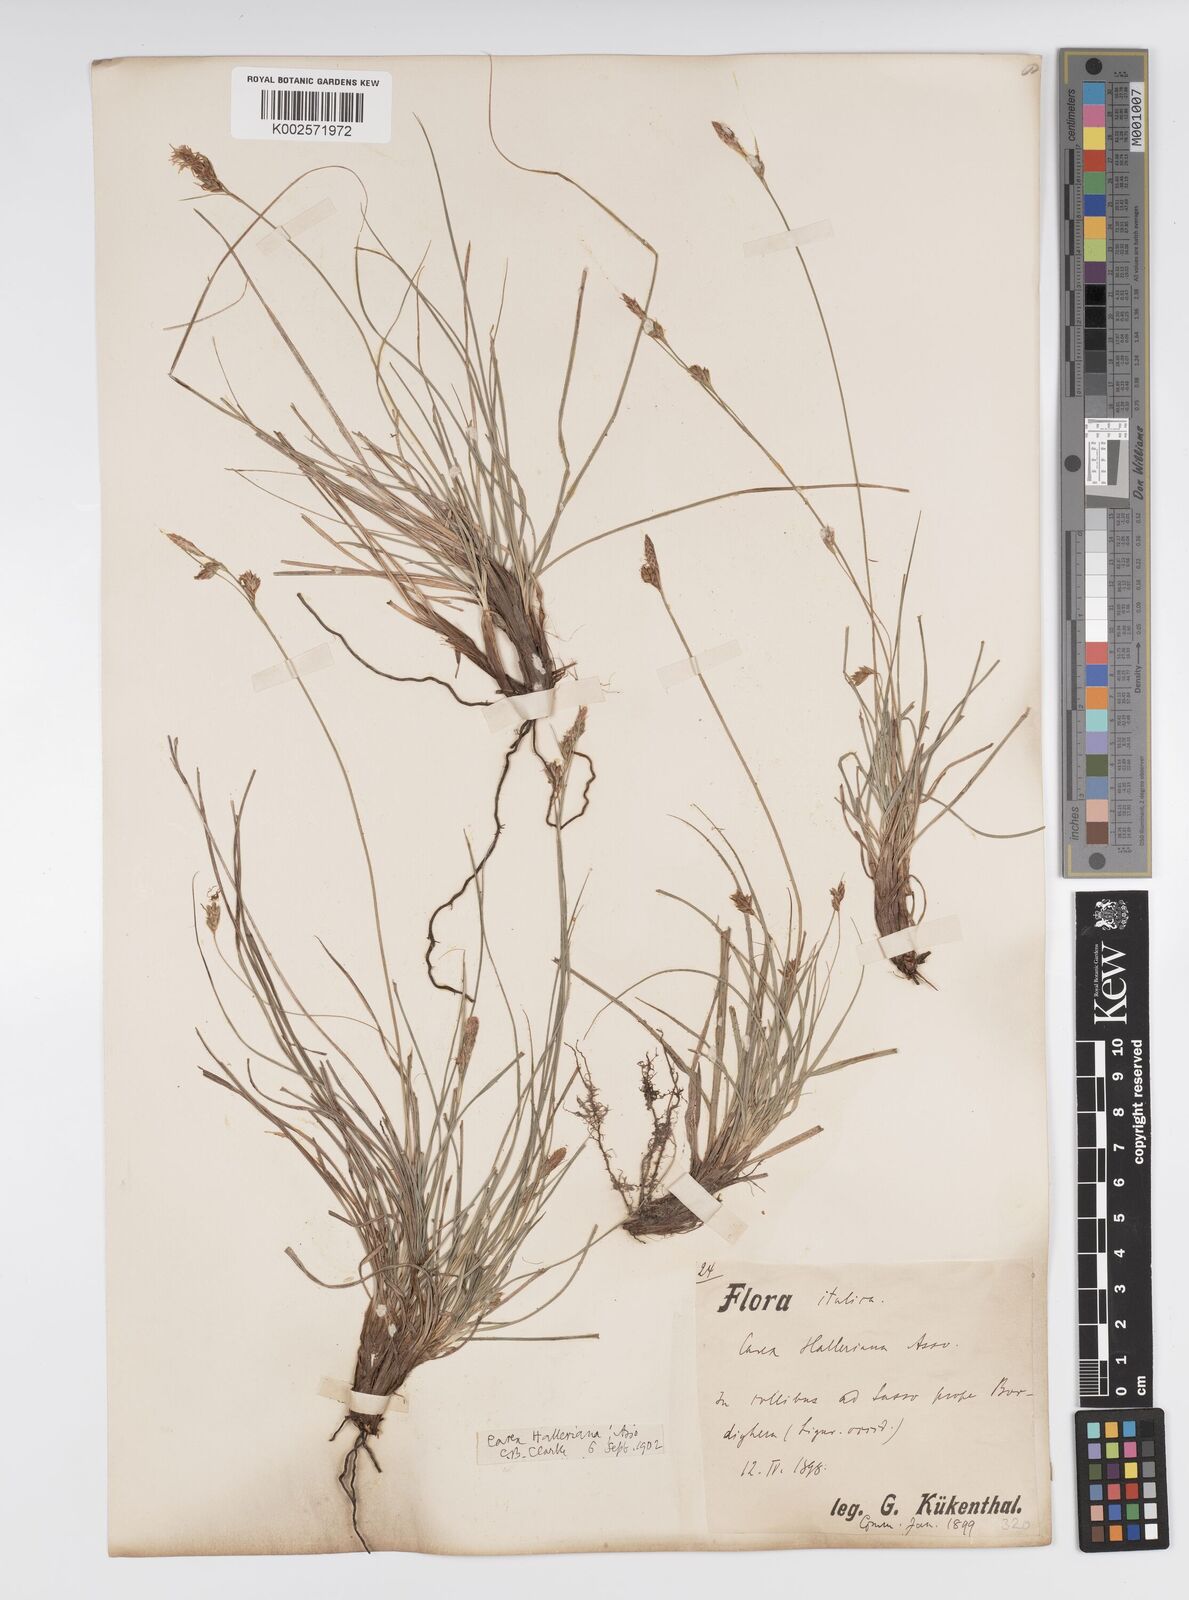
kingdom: Plantae
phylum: Tracheophyta
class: Liliopsida
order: Poales
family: Cyperaceae
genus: Carex
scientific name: Carex halleriana
